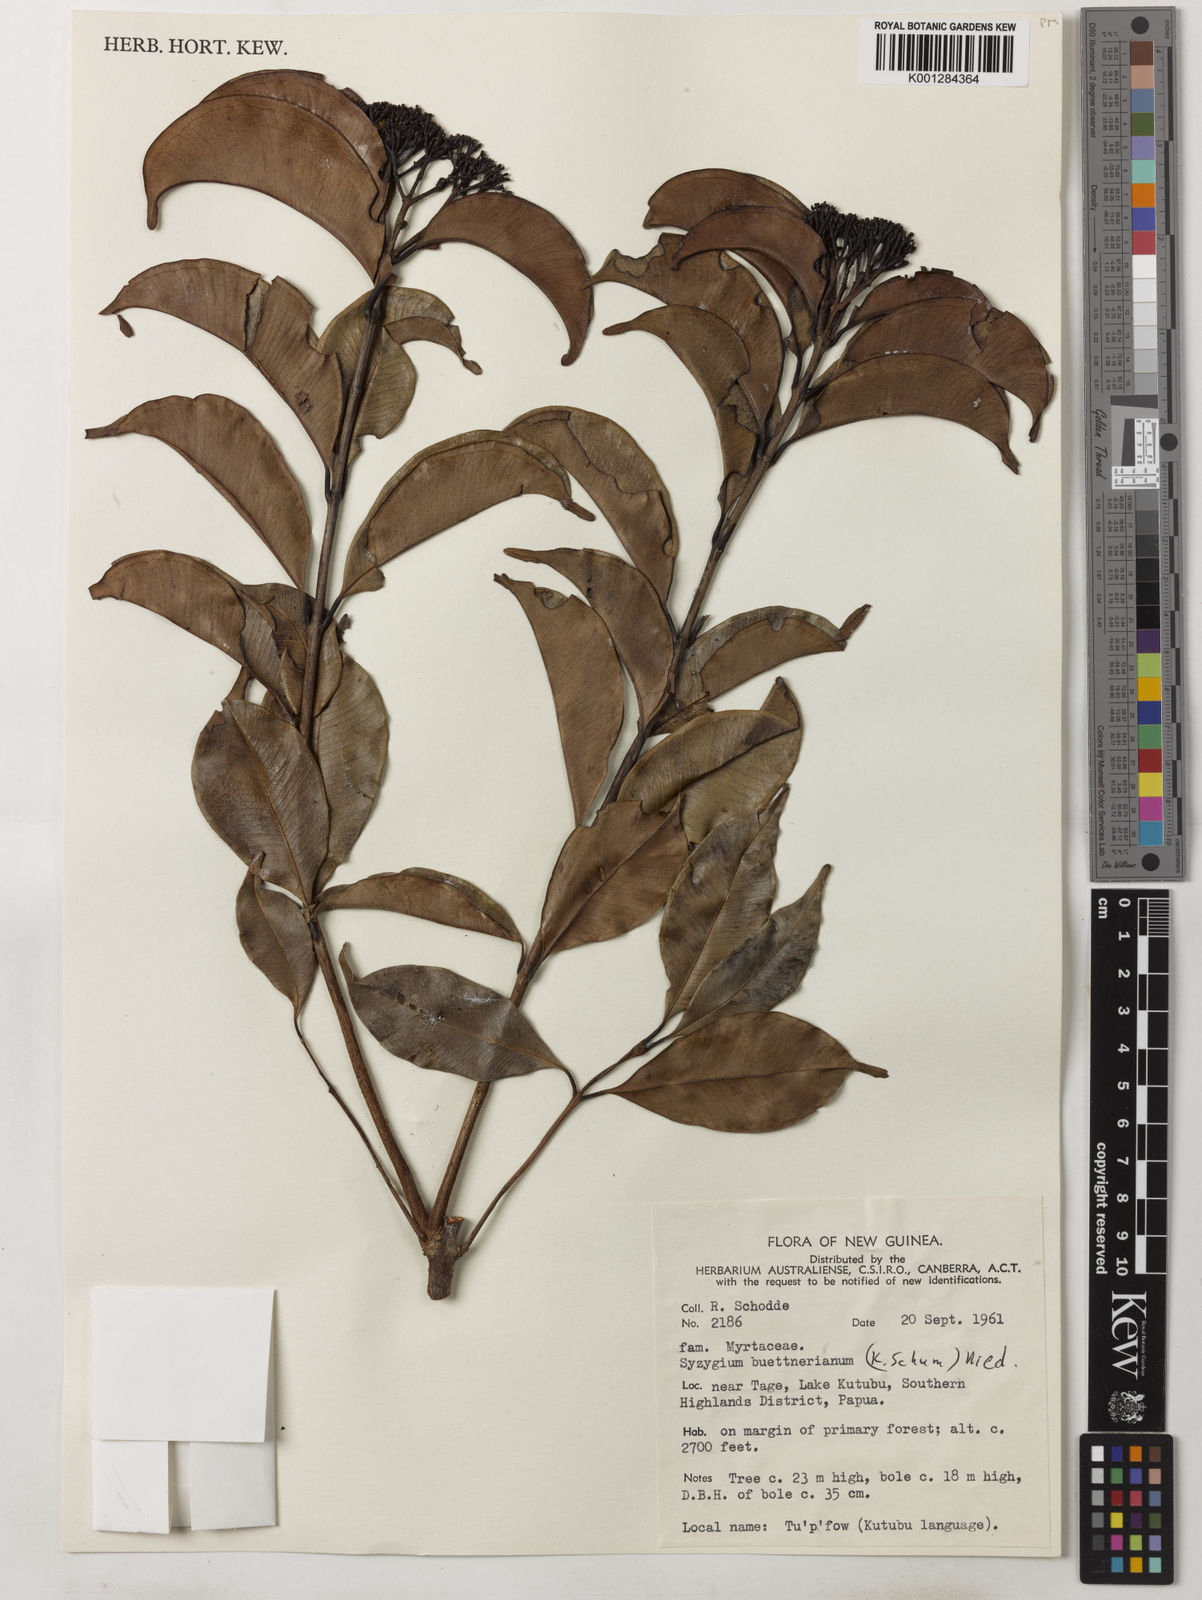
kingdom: Plantae
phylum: Tracheophyta
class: Magnoliopsida
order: Myrtales
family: Myrtaceae
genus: Syzygium
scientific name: Syzygium buettnerianum
